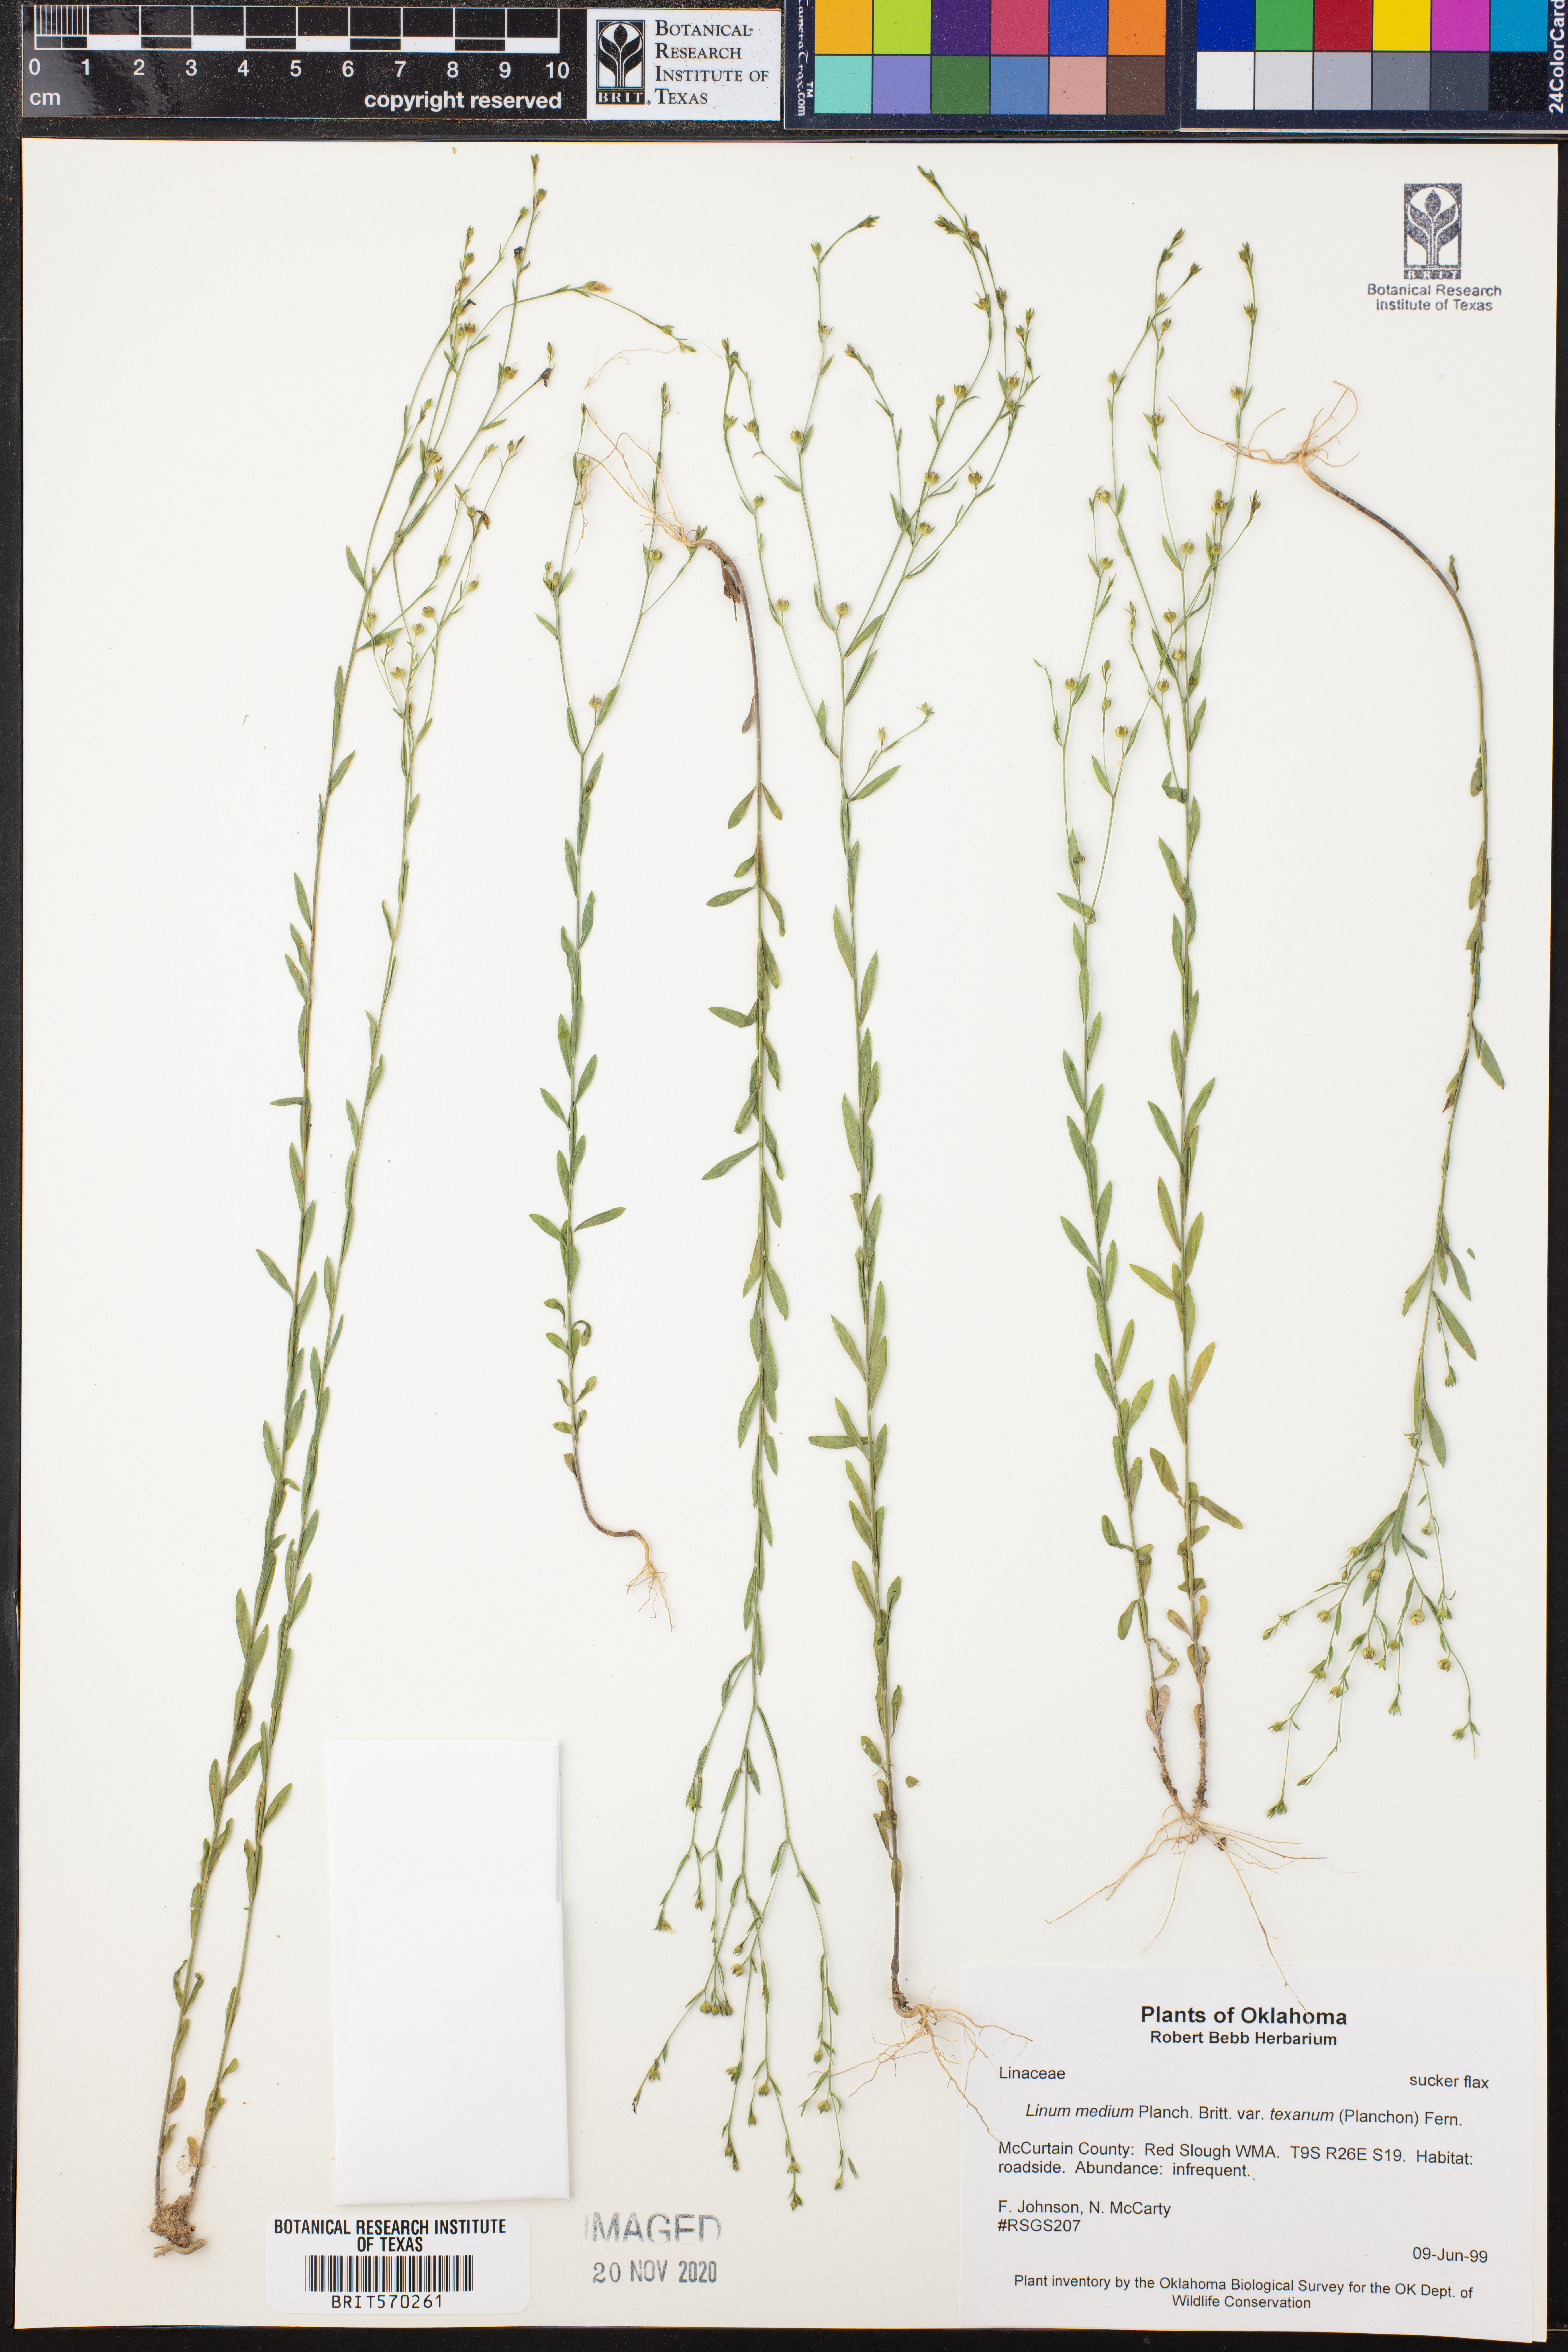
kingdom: Plantae
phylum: Tracheophyta
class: Magnoliopsida
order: Malpighiales
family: Linaceae
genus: Linum
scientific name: Linum medium
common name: Stiff yellow flax
